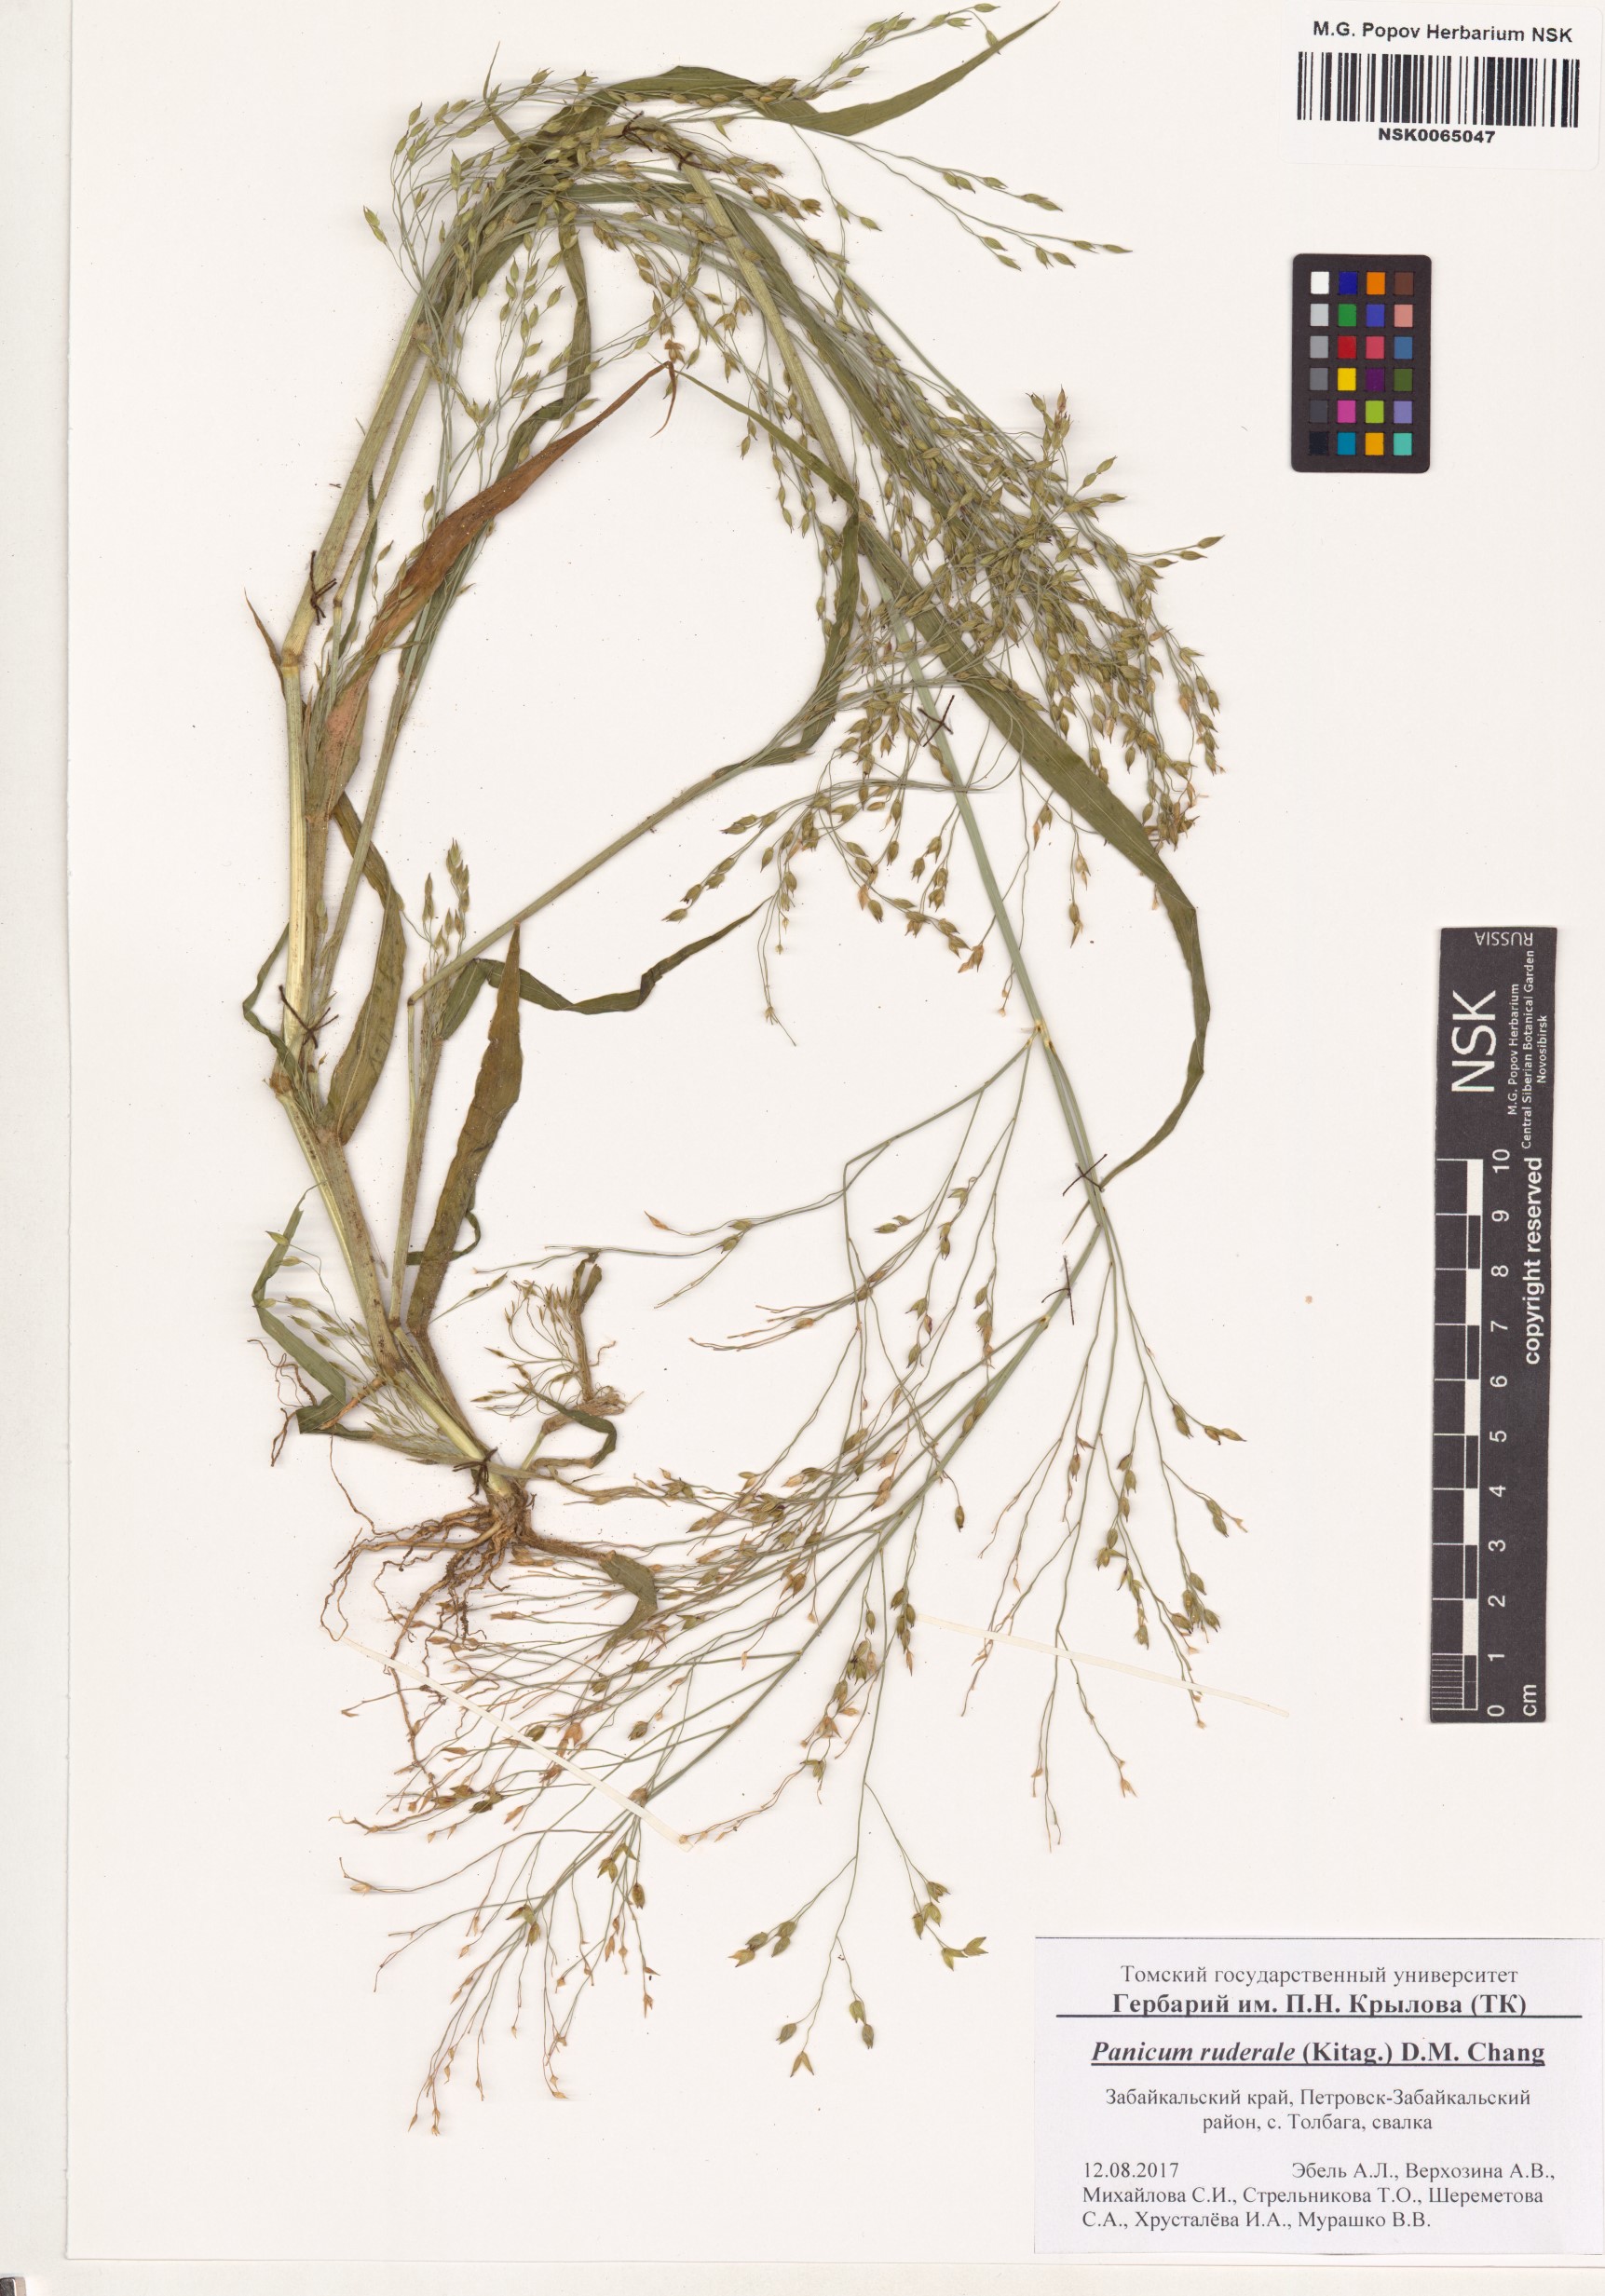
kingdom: Plantae
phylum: Tracheophyta
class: Liliopsida
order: Poales
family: Poaceae
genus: Panicum
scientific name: Panicum miliaceum
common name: Common millet
